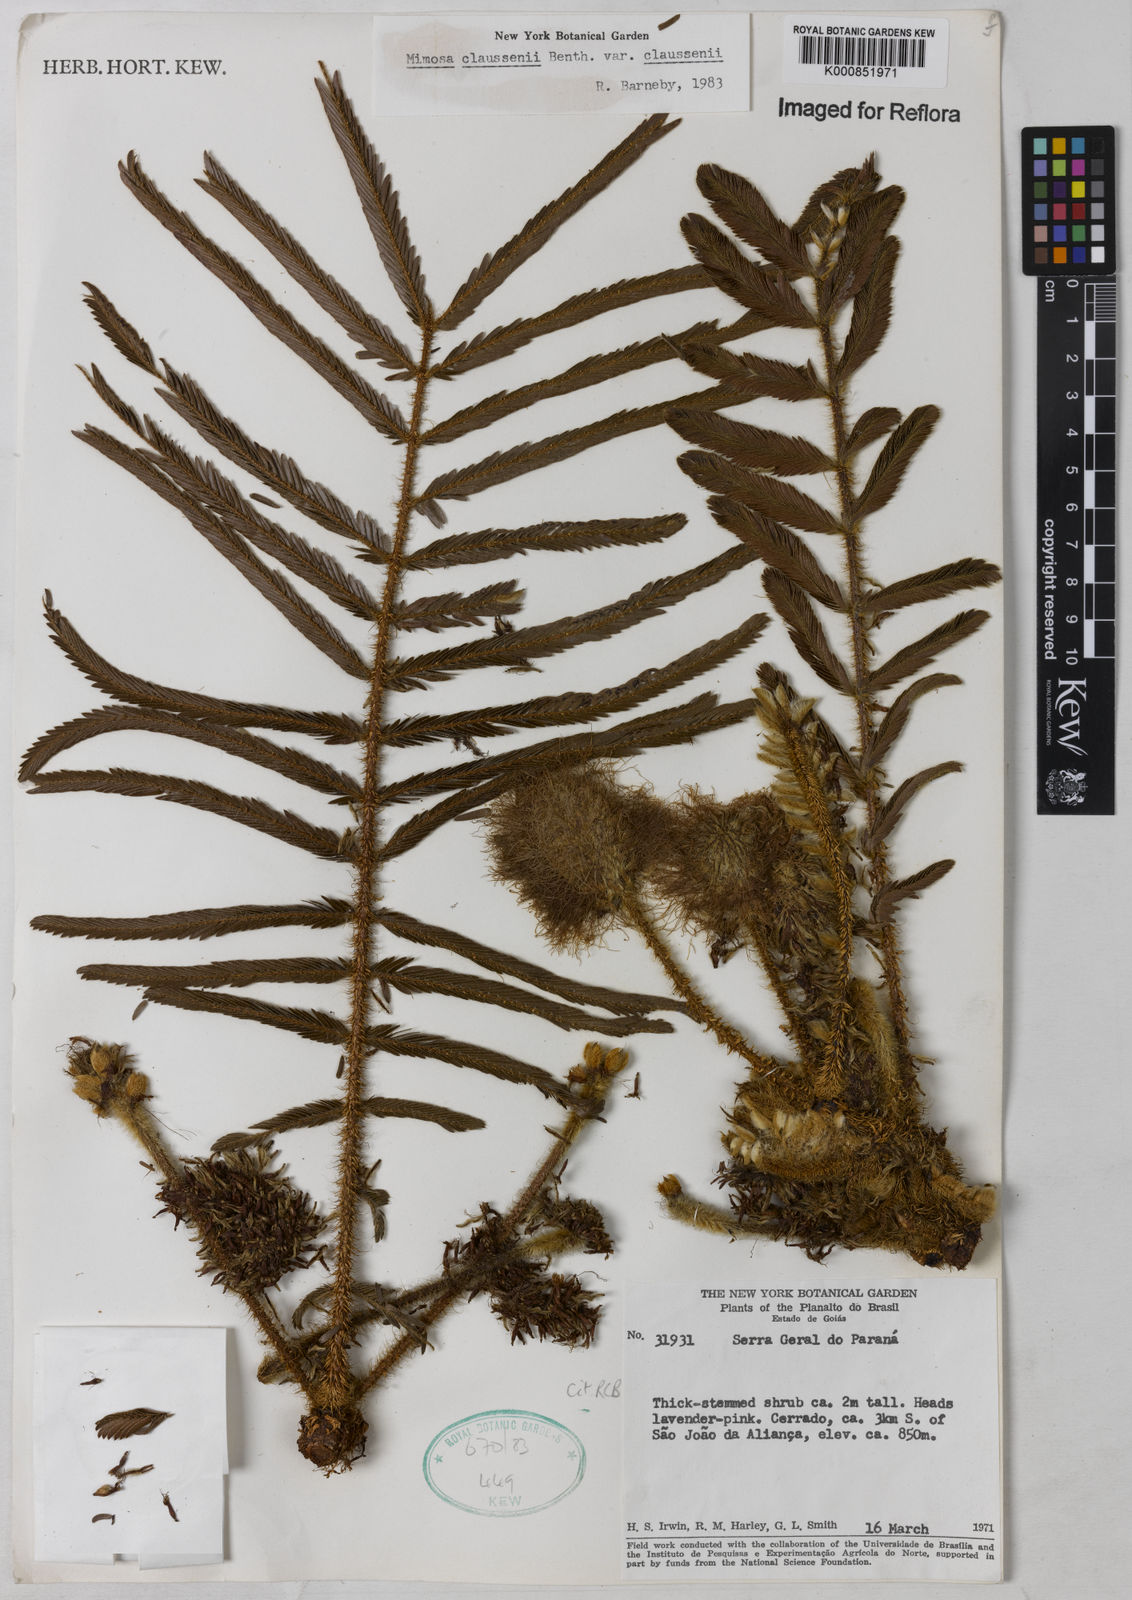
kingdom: Plantae
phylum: Tracheophyta
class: Magnoliopsida
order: Fabales
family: Fabaceae
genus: Mimosa
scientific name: Mimosa claussenii
